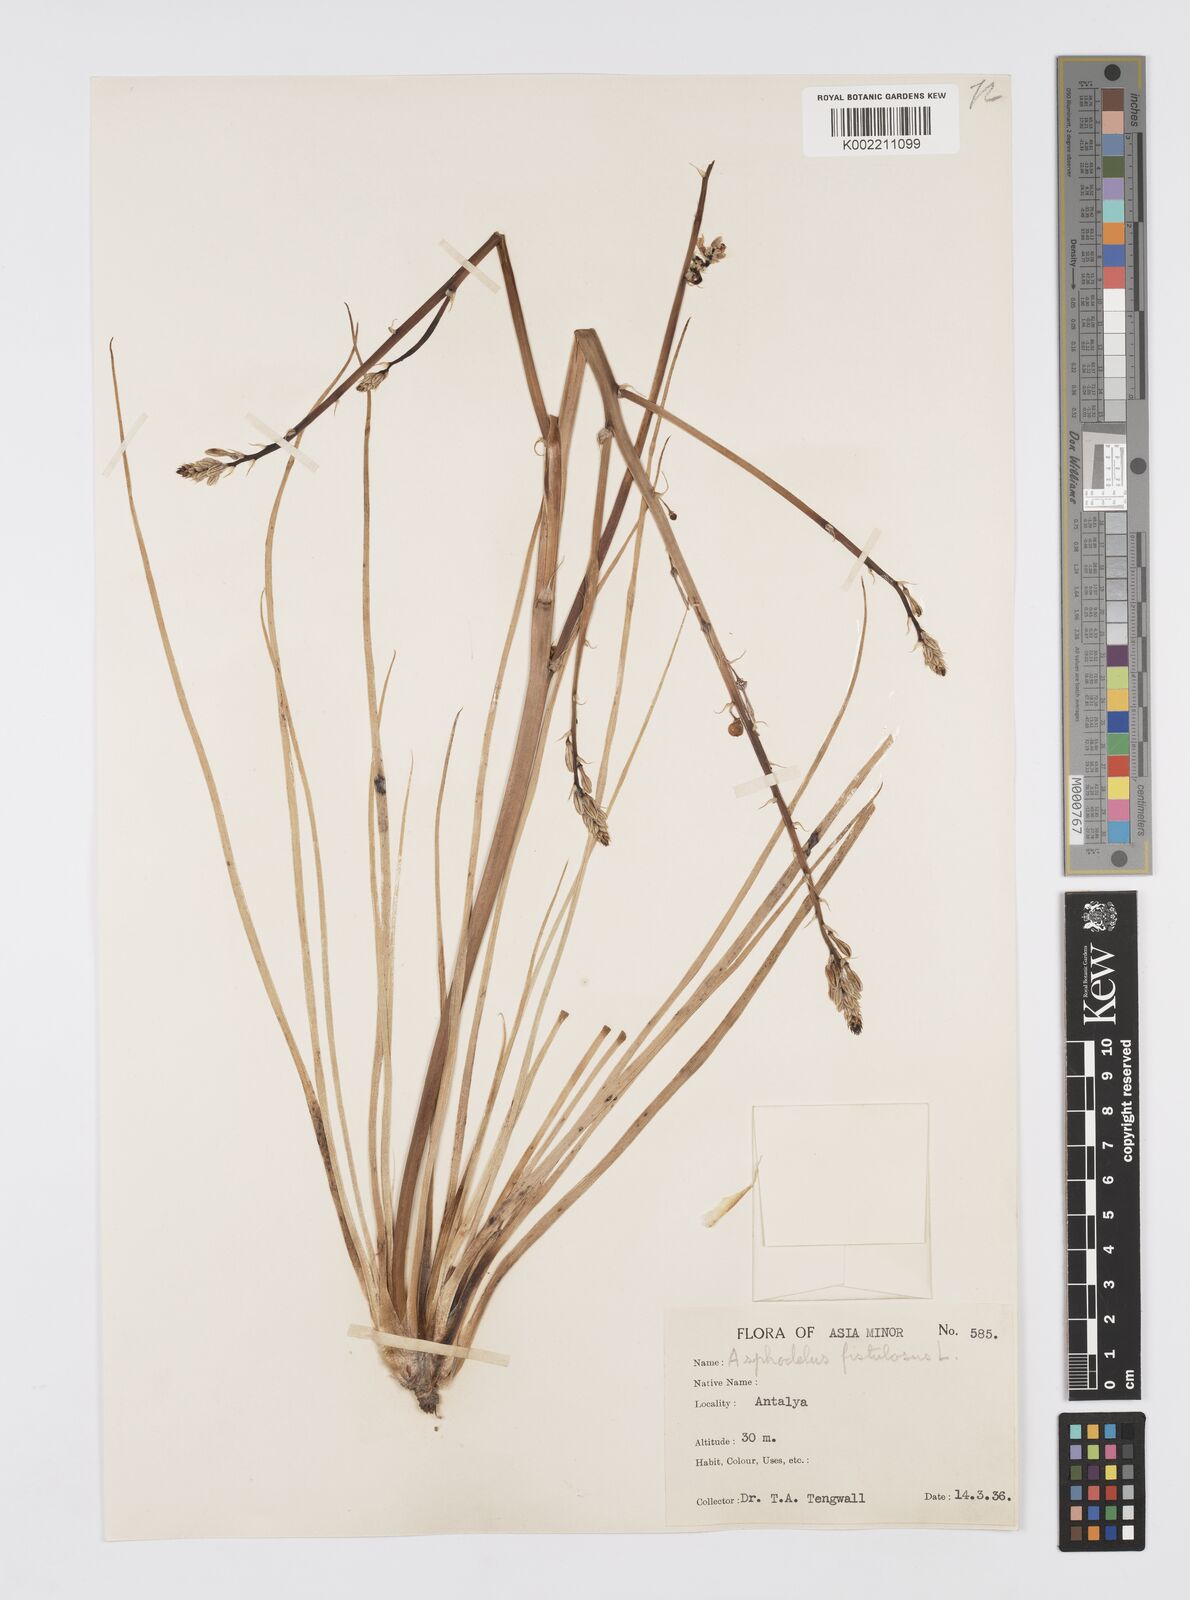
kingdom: Plantae
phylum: Tracheophyta
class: Liliopsida
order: Asparagales
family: Asphodelaceae
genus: Asphodelus
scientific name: Asphodelus fistulosus
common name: Onionweed
